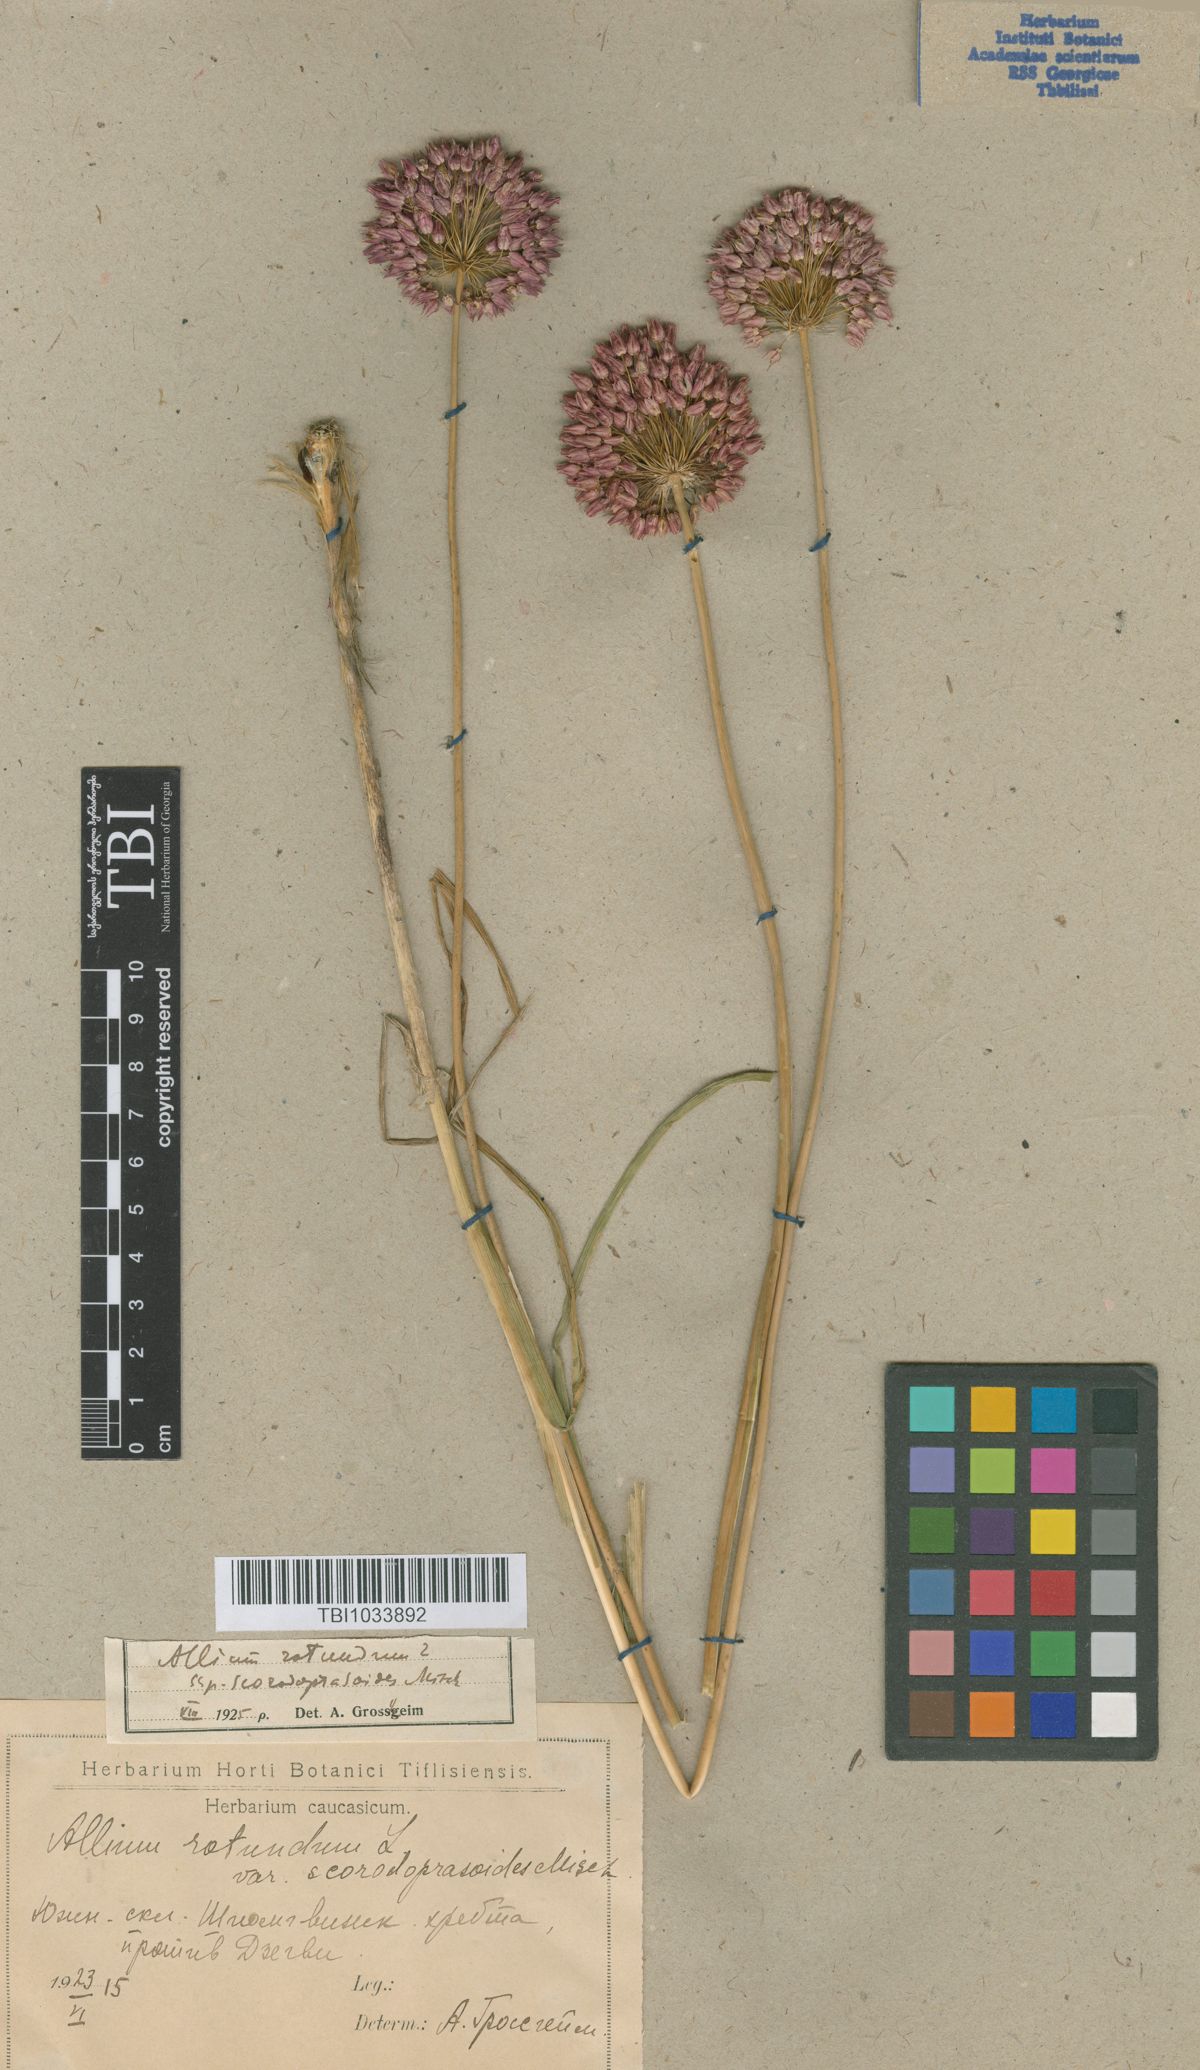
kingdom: Plantae
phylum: Tracheophyta
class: Liliopsida
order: Asparagales
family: Amaryllidaceae
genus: Allium
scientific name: Allium rotundum
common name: Sand leek
